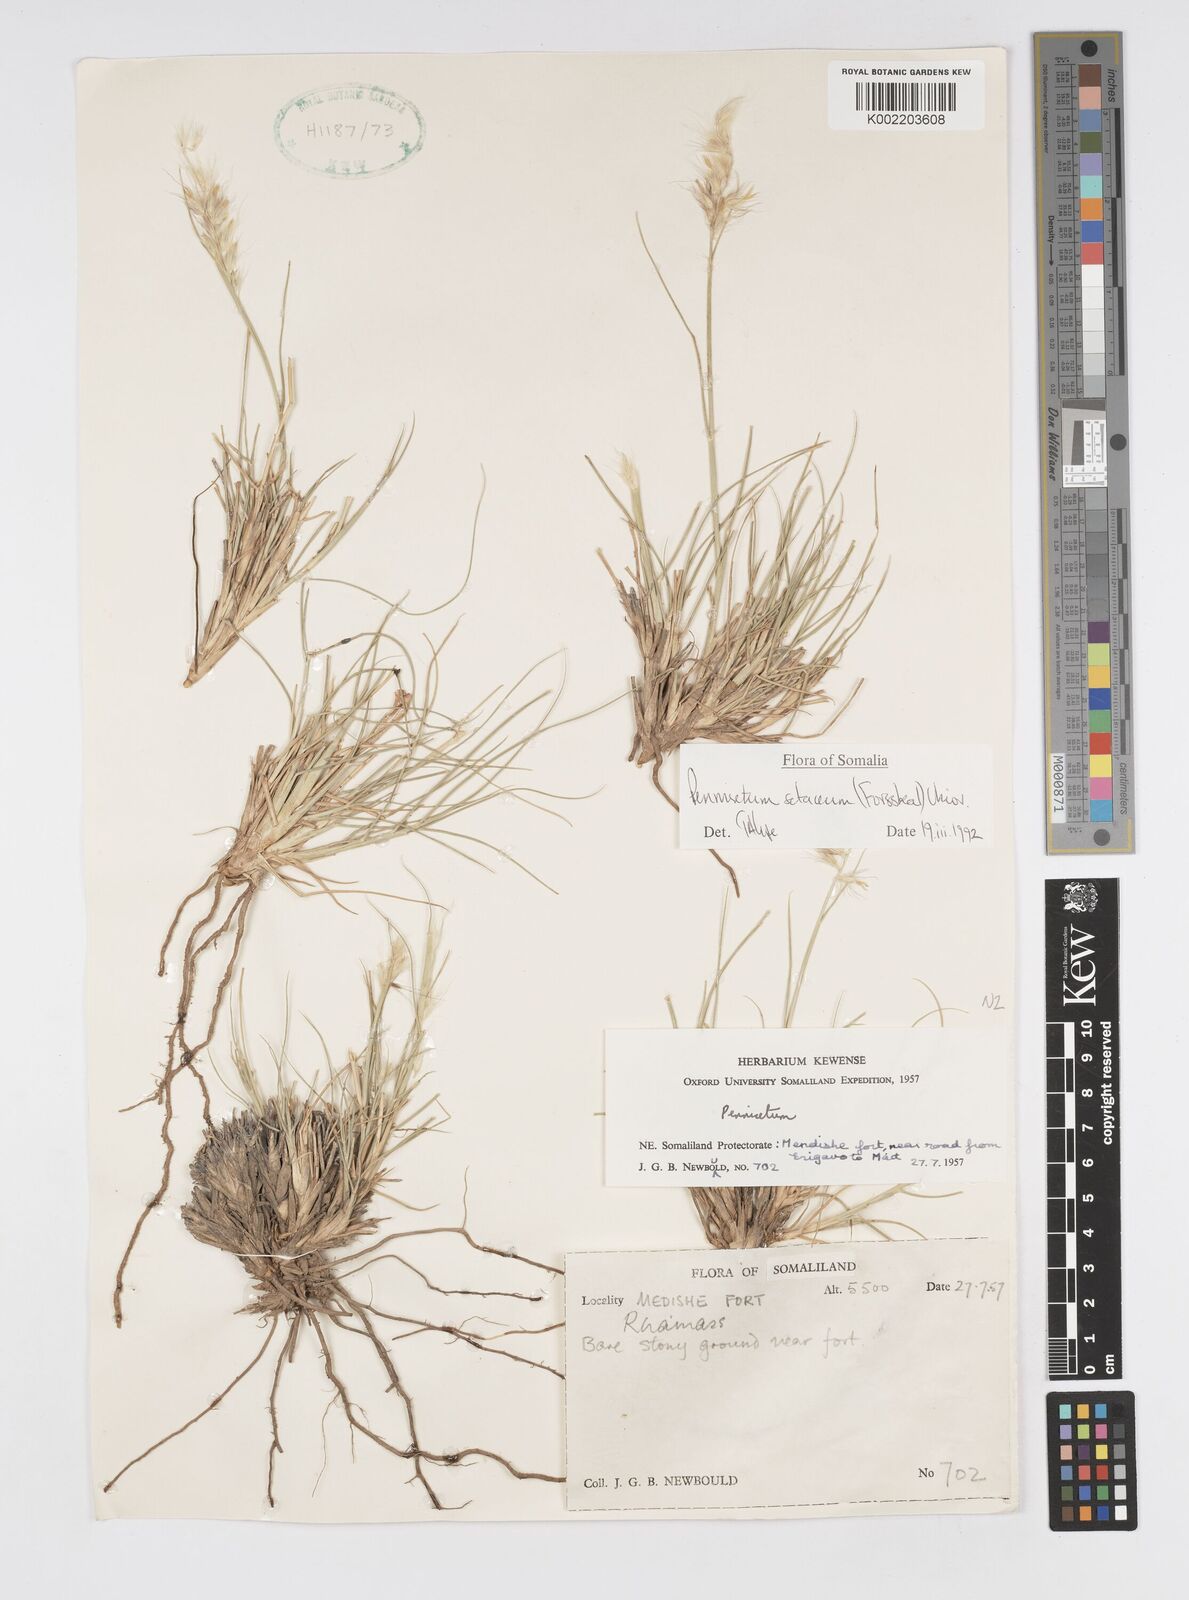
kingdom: Plantae
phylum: Tracheophyta
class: Liliopsida
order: Poales
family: Poaceae
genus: Cenchrus
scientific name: Cenchrus setaceus
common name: Crimson fountaingrass
